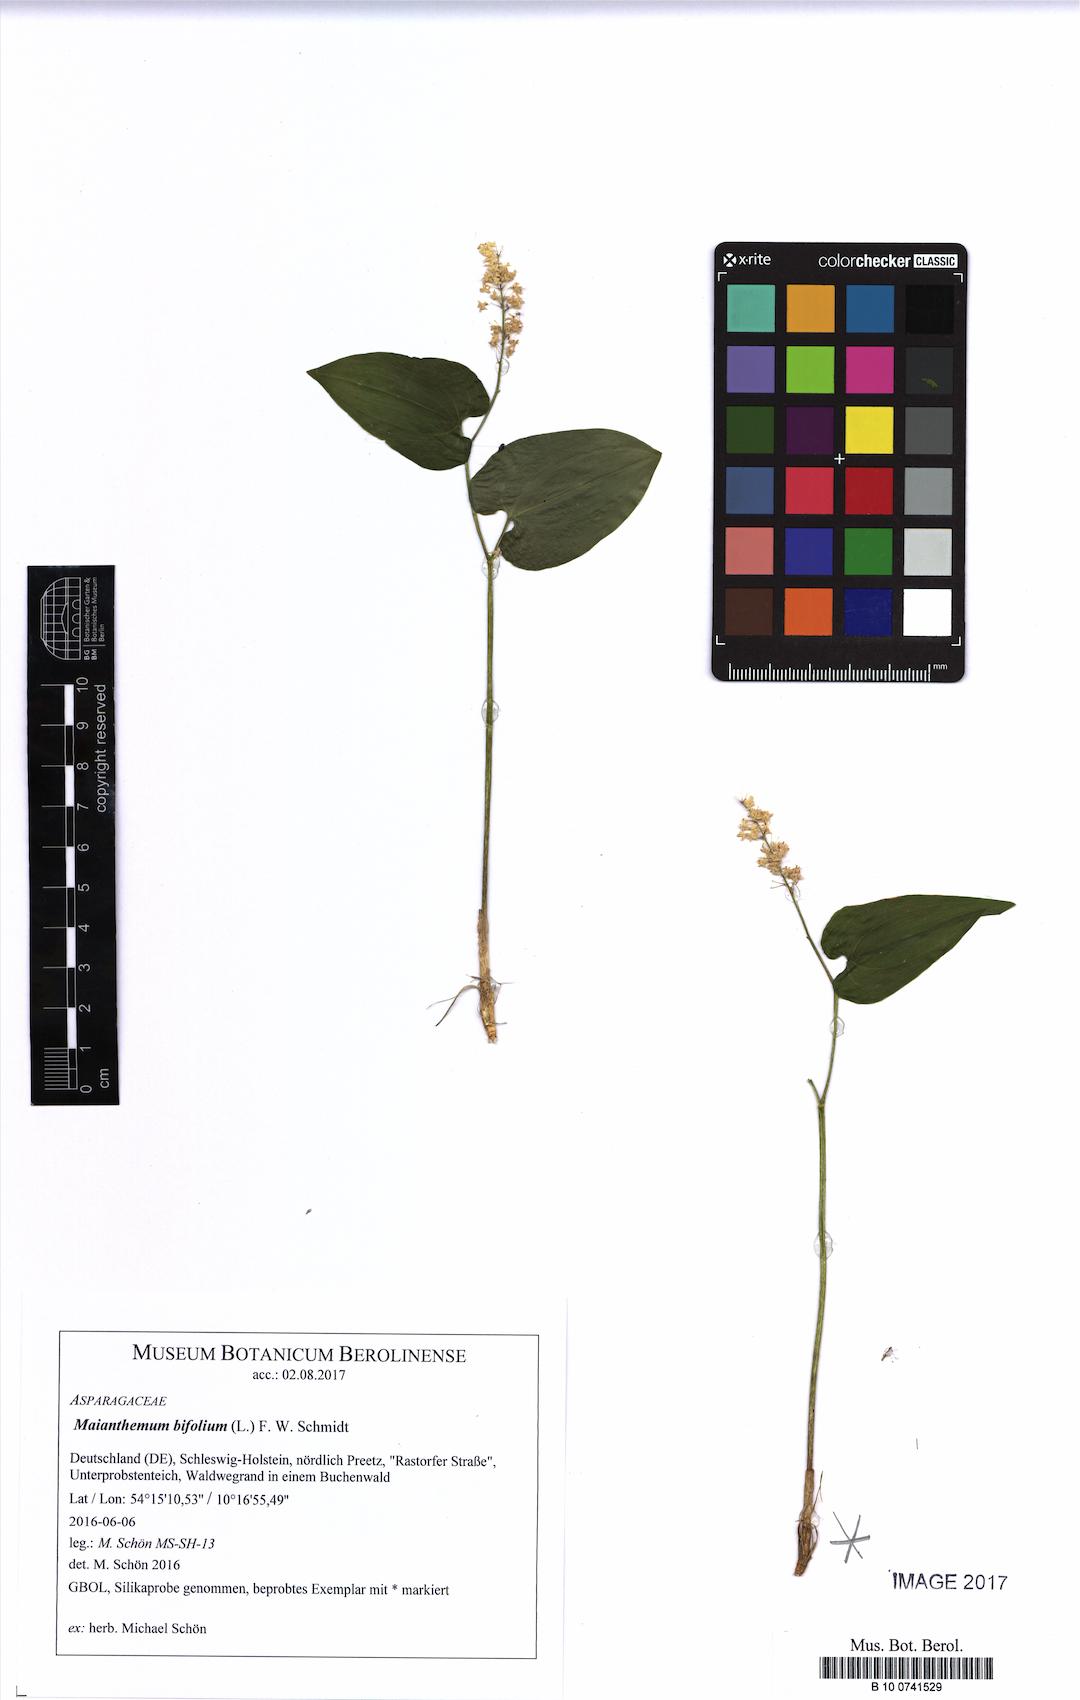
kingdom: Plantae
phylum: Tracheophyta
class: Liliopsida
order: Asparagales
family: Asparagaceae
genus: Maianthemum
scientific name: Maianthemum bifolium
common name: May lily
